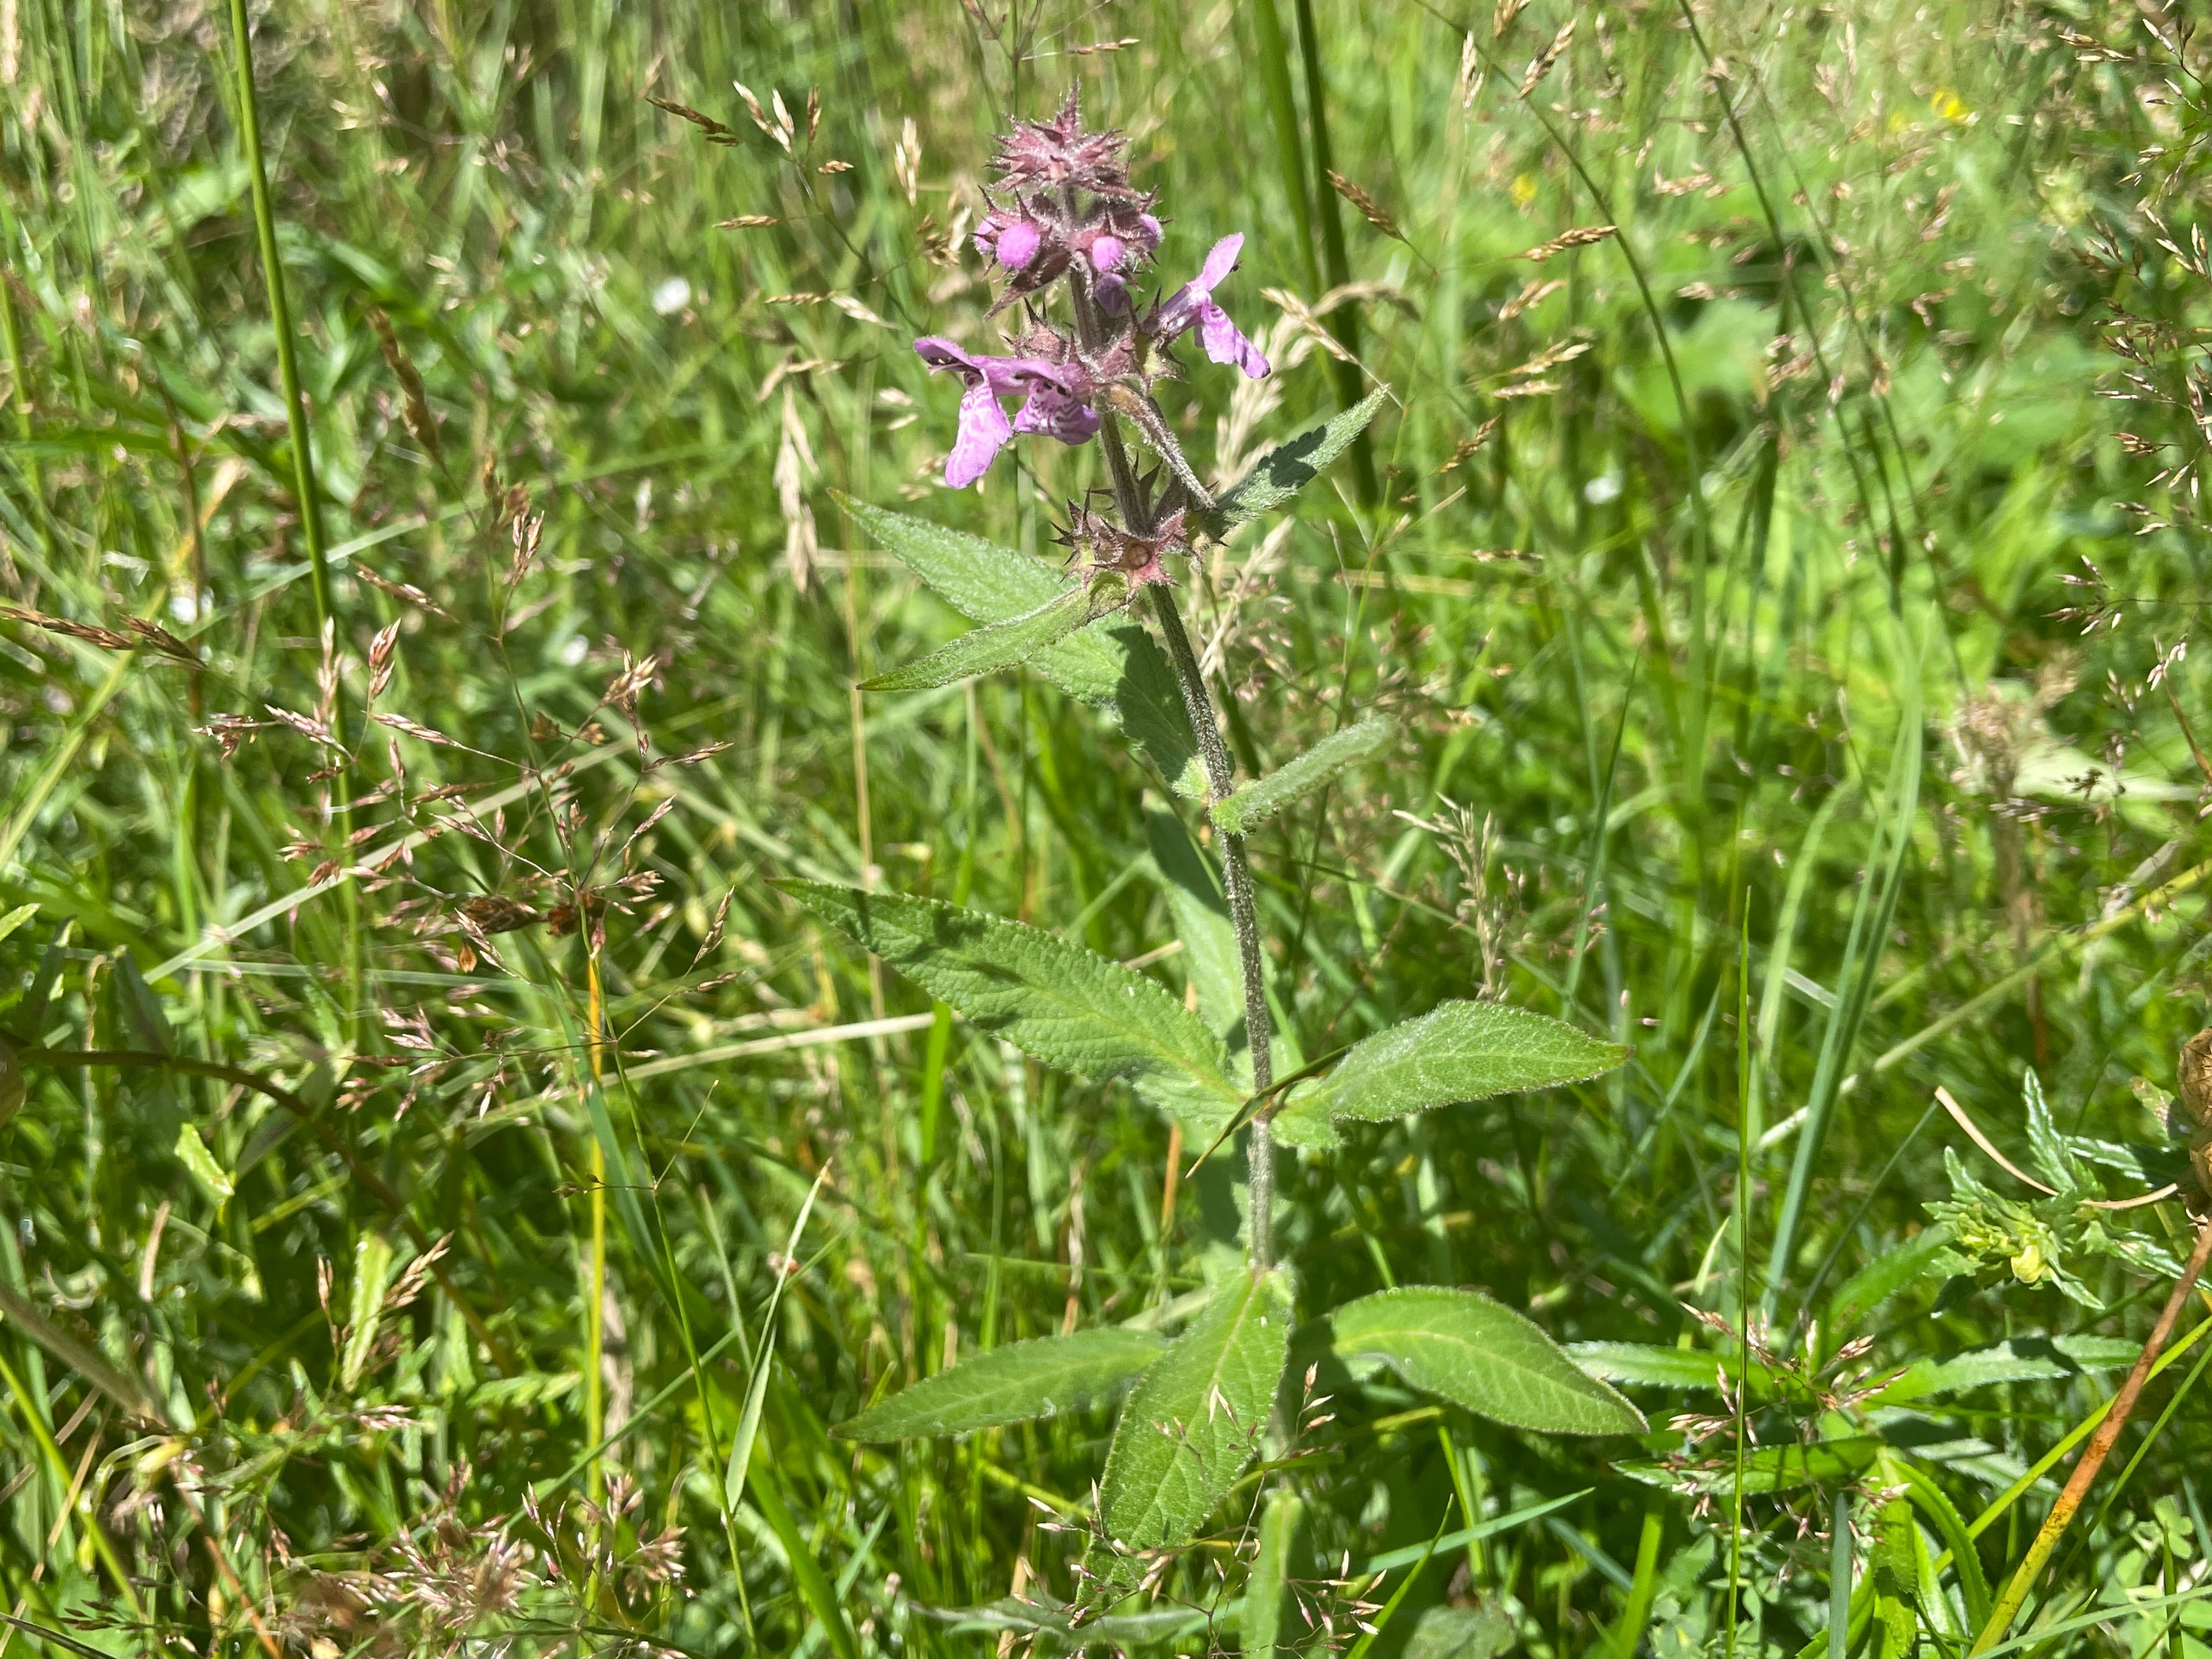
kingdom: Plantae
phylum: Tracheophyta
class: Magnoliopsida
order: Lamiales
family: Lamiaceae
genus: Stachys
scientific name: Stachys palustris
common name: Kær-galtetand
